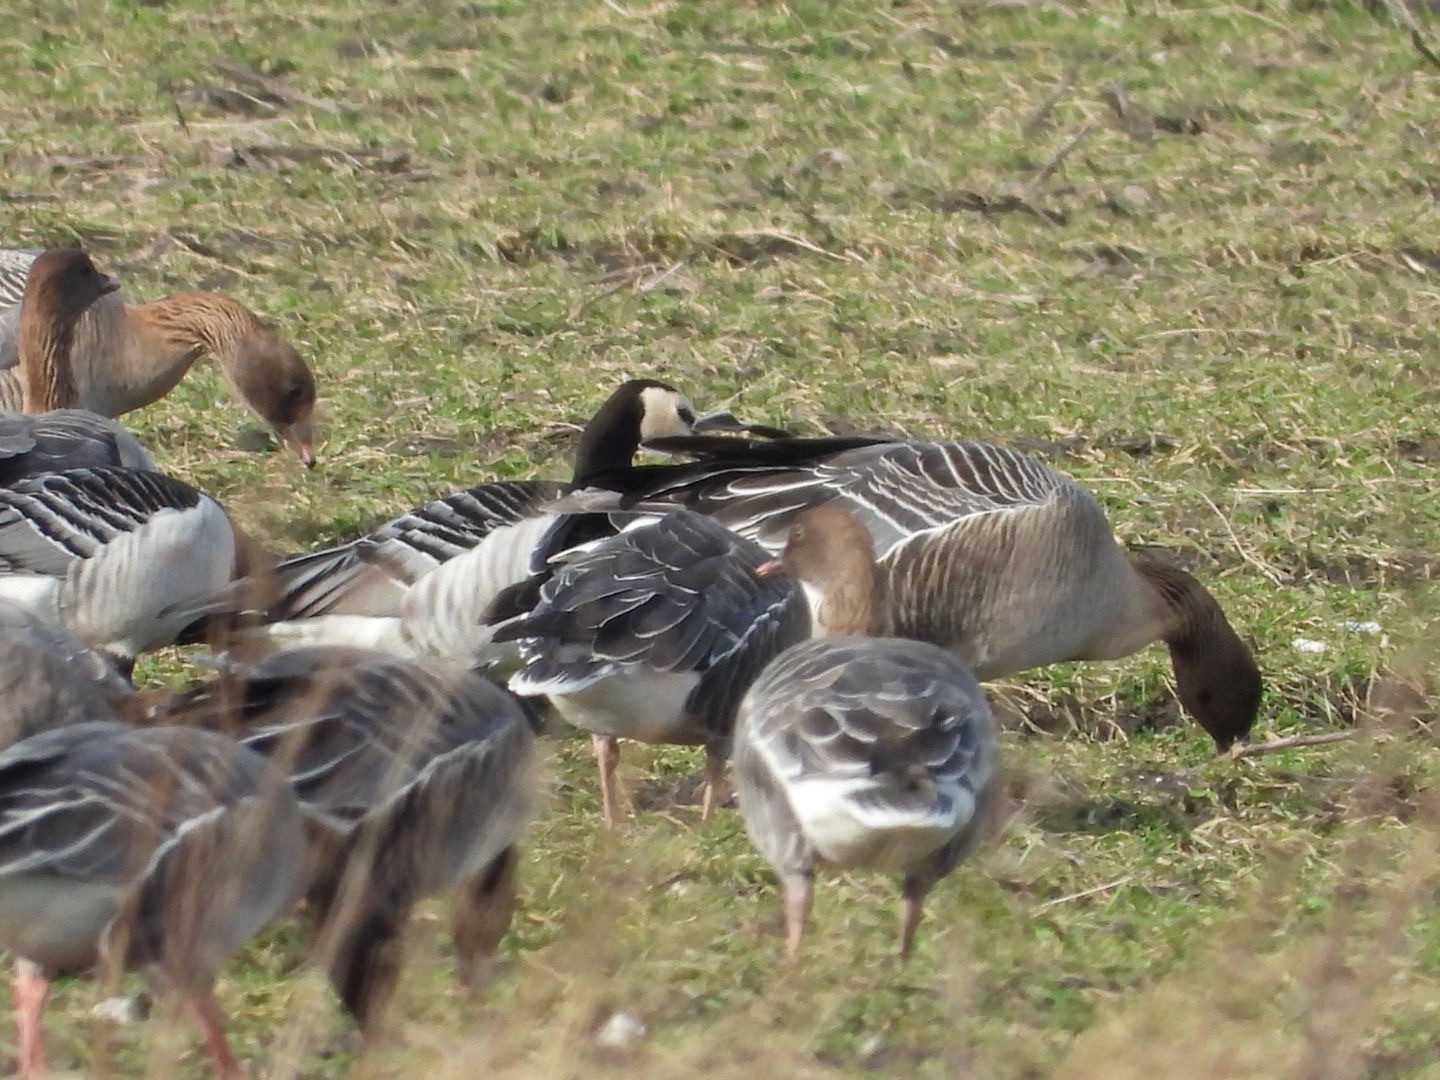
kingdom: Animalia
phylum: Chordata
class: Aves
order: Anseriformes
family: Anatidae
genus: Branta
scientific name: Branta leucopsis
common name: Bramgås
